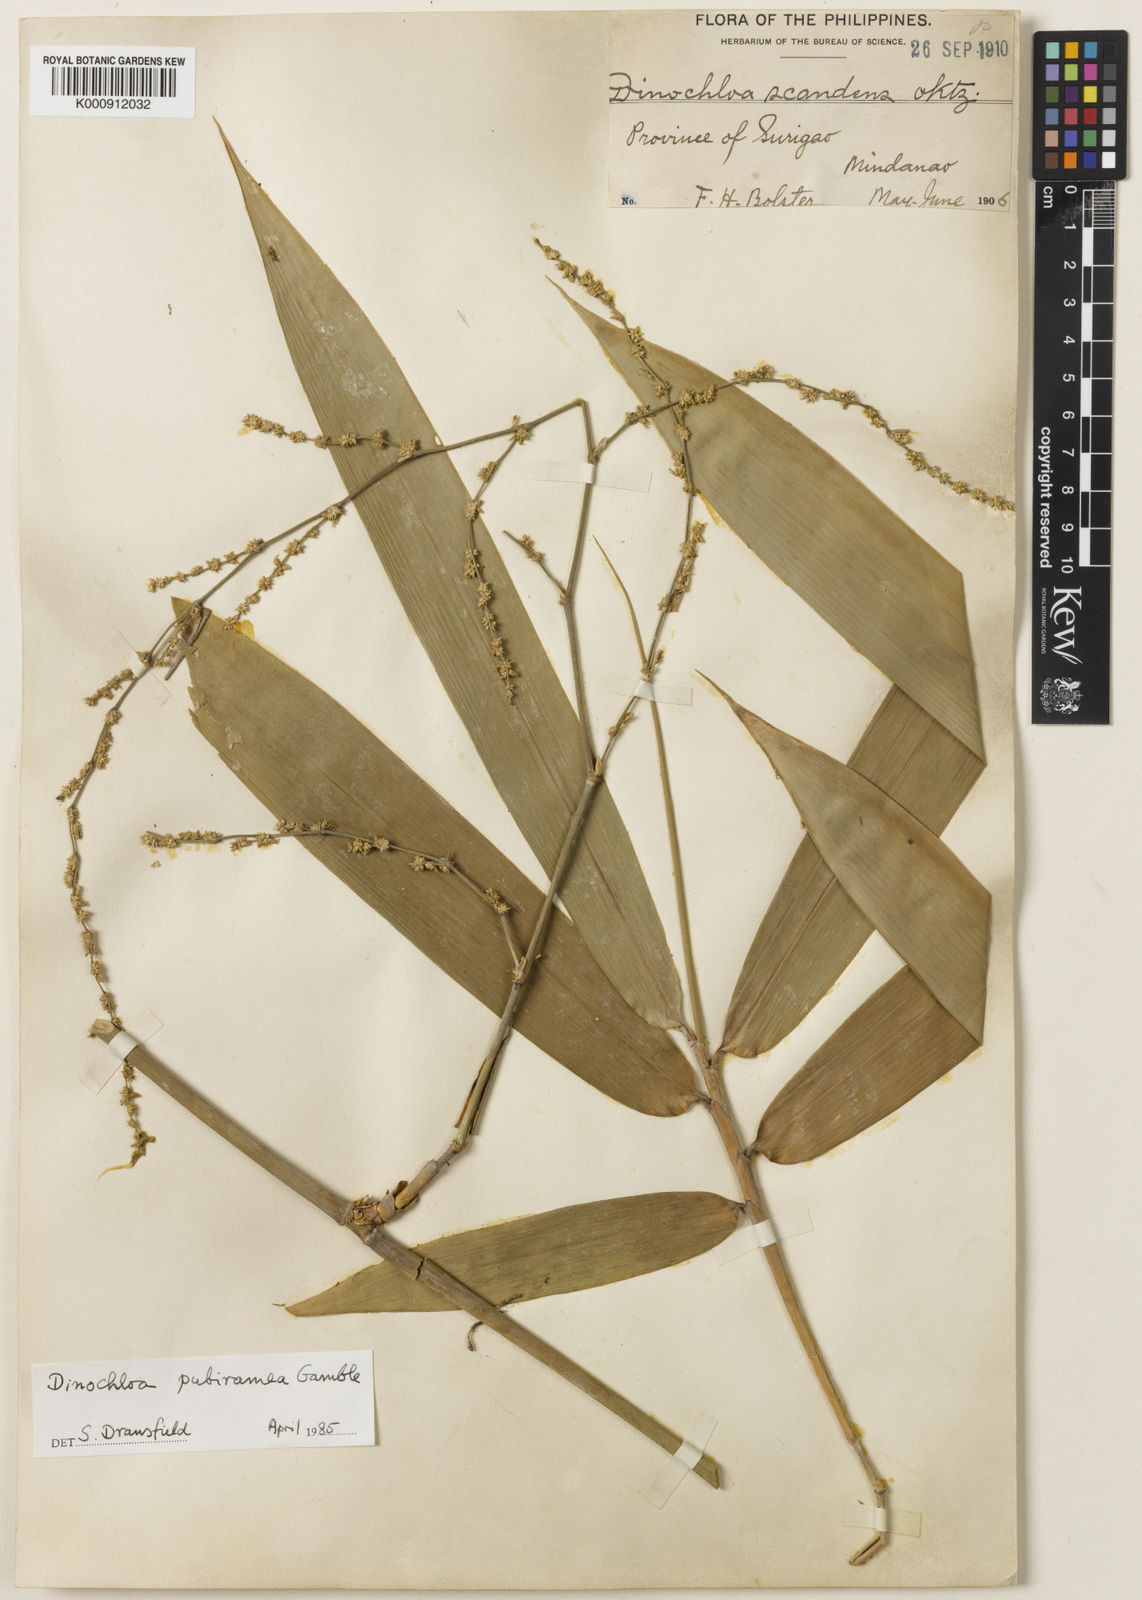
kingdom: Plantae
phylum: Tracheophyta
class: Liliopsida
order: Poales
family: Poaceae
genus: Dinochloa
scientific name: Dinochloa pubiramea
